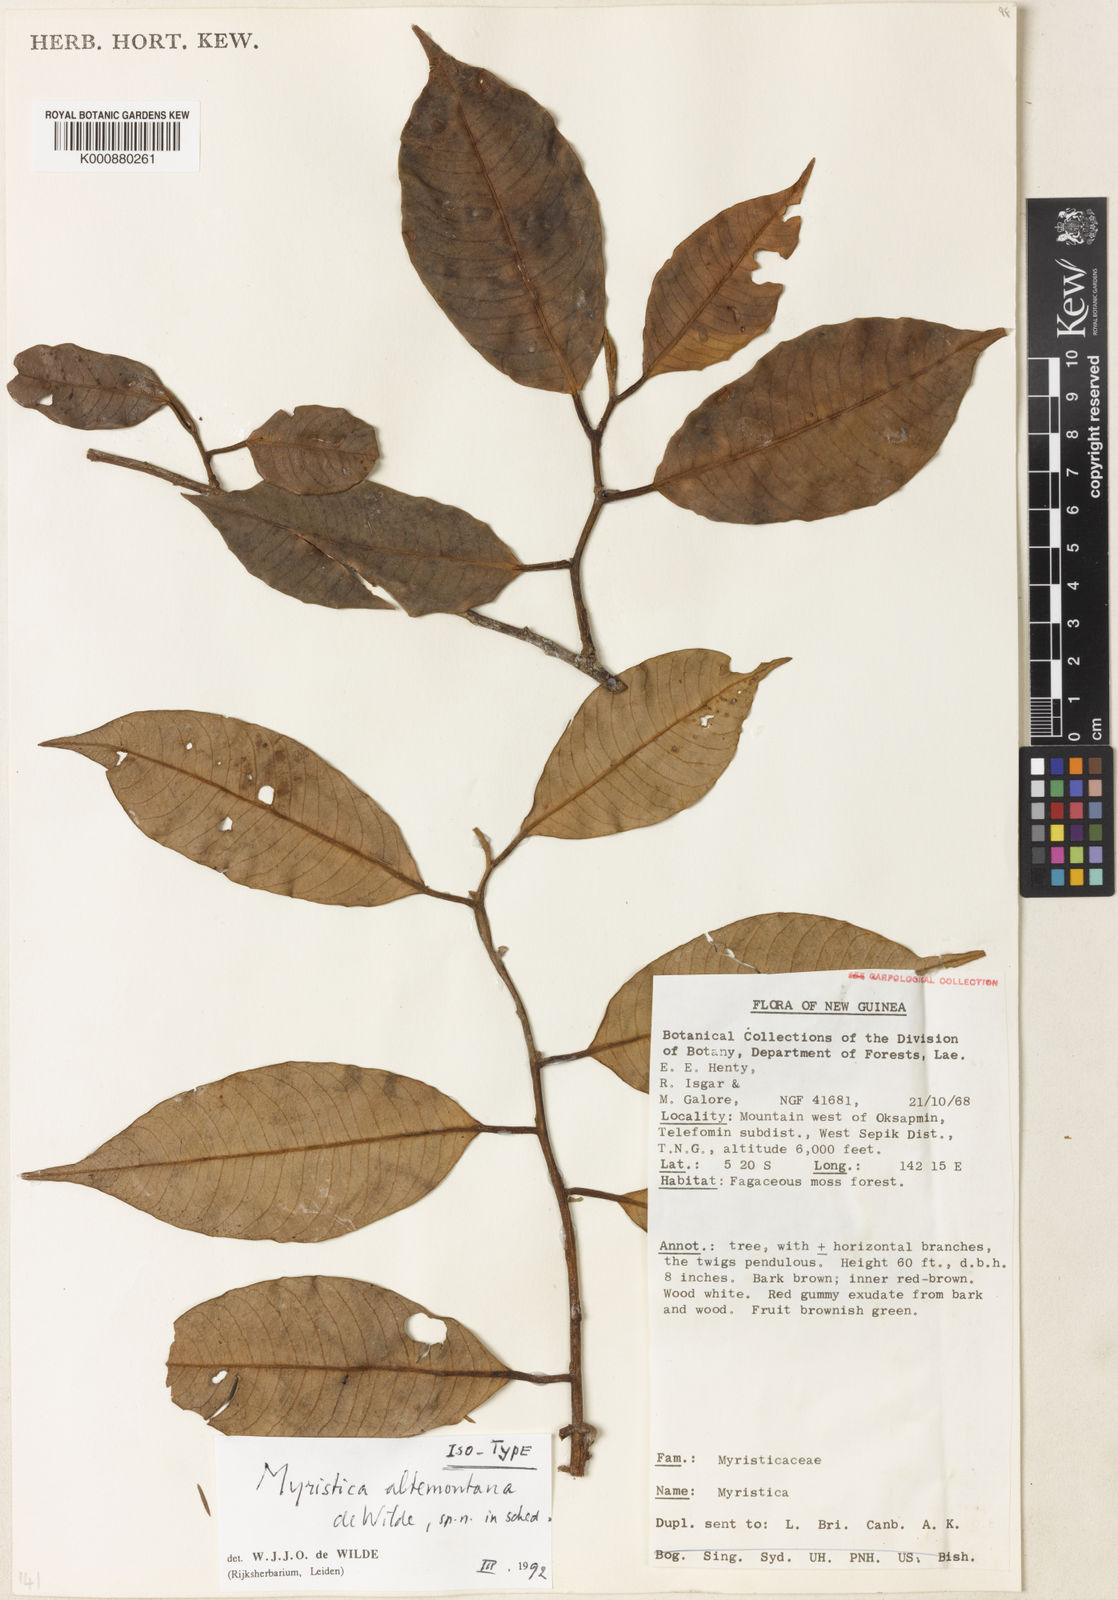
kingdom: Plantae
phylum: Tracheophyta
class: Magnoliopsida
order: Magnoliales
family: Myristicaceae
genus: Myristica
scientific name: Myristica
